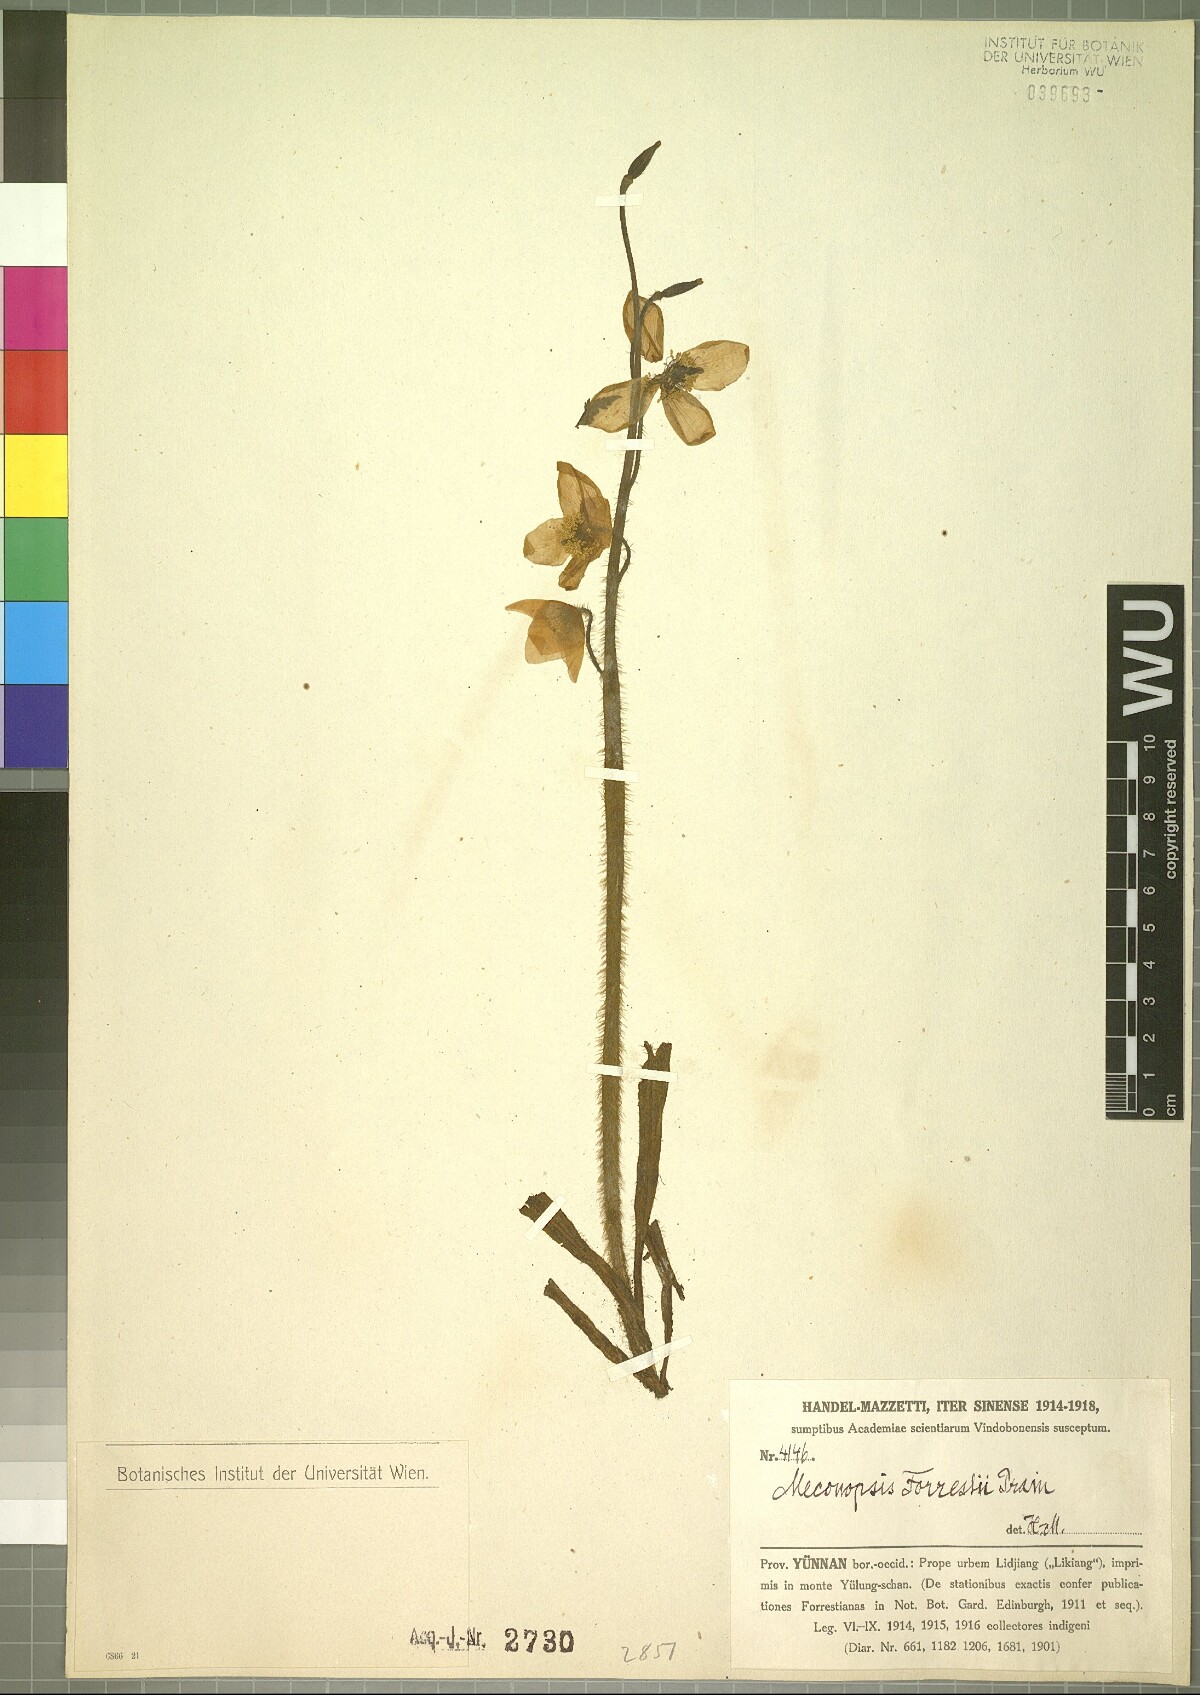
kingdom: Plantae
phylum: Tracheophyta
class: Magnoliopsida
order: Ranunculales
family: Papaveraceae
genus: Meconopsis
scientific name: Meconopsis forrestii
